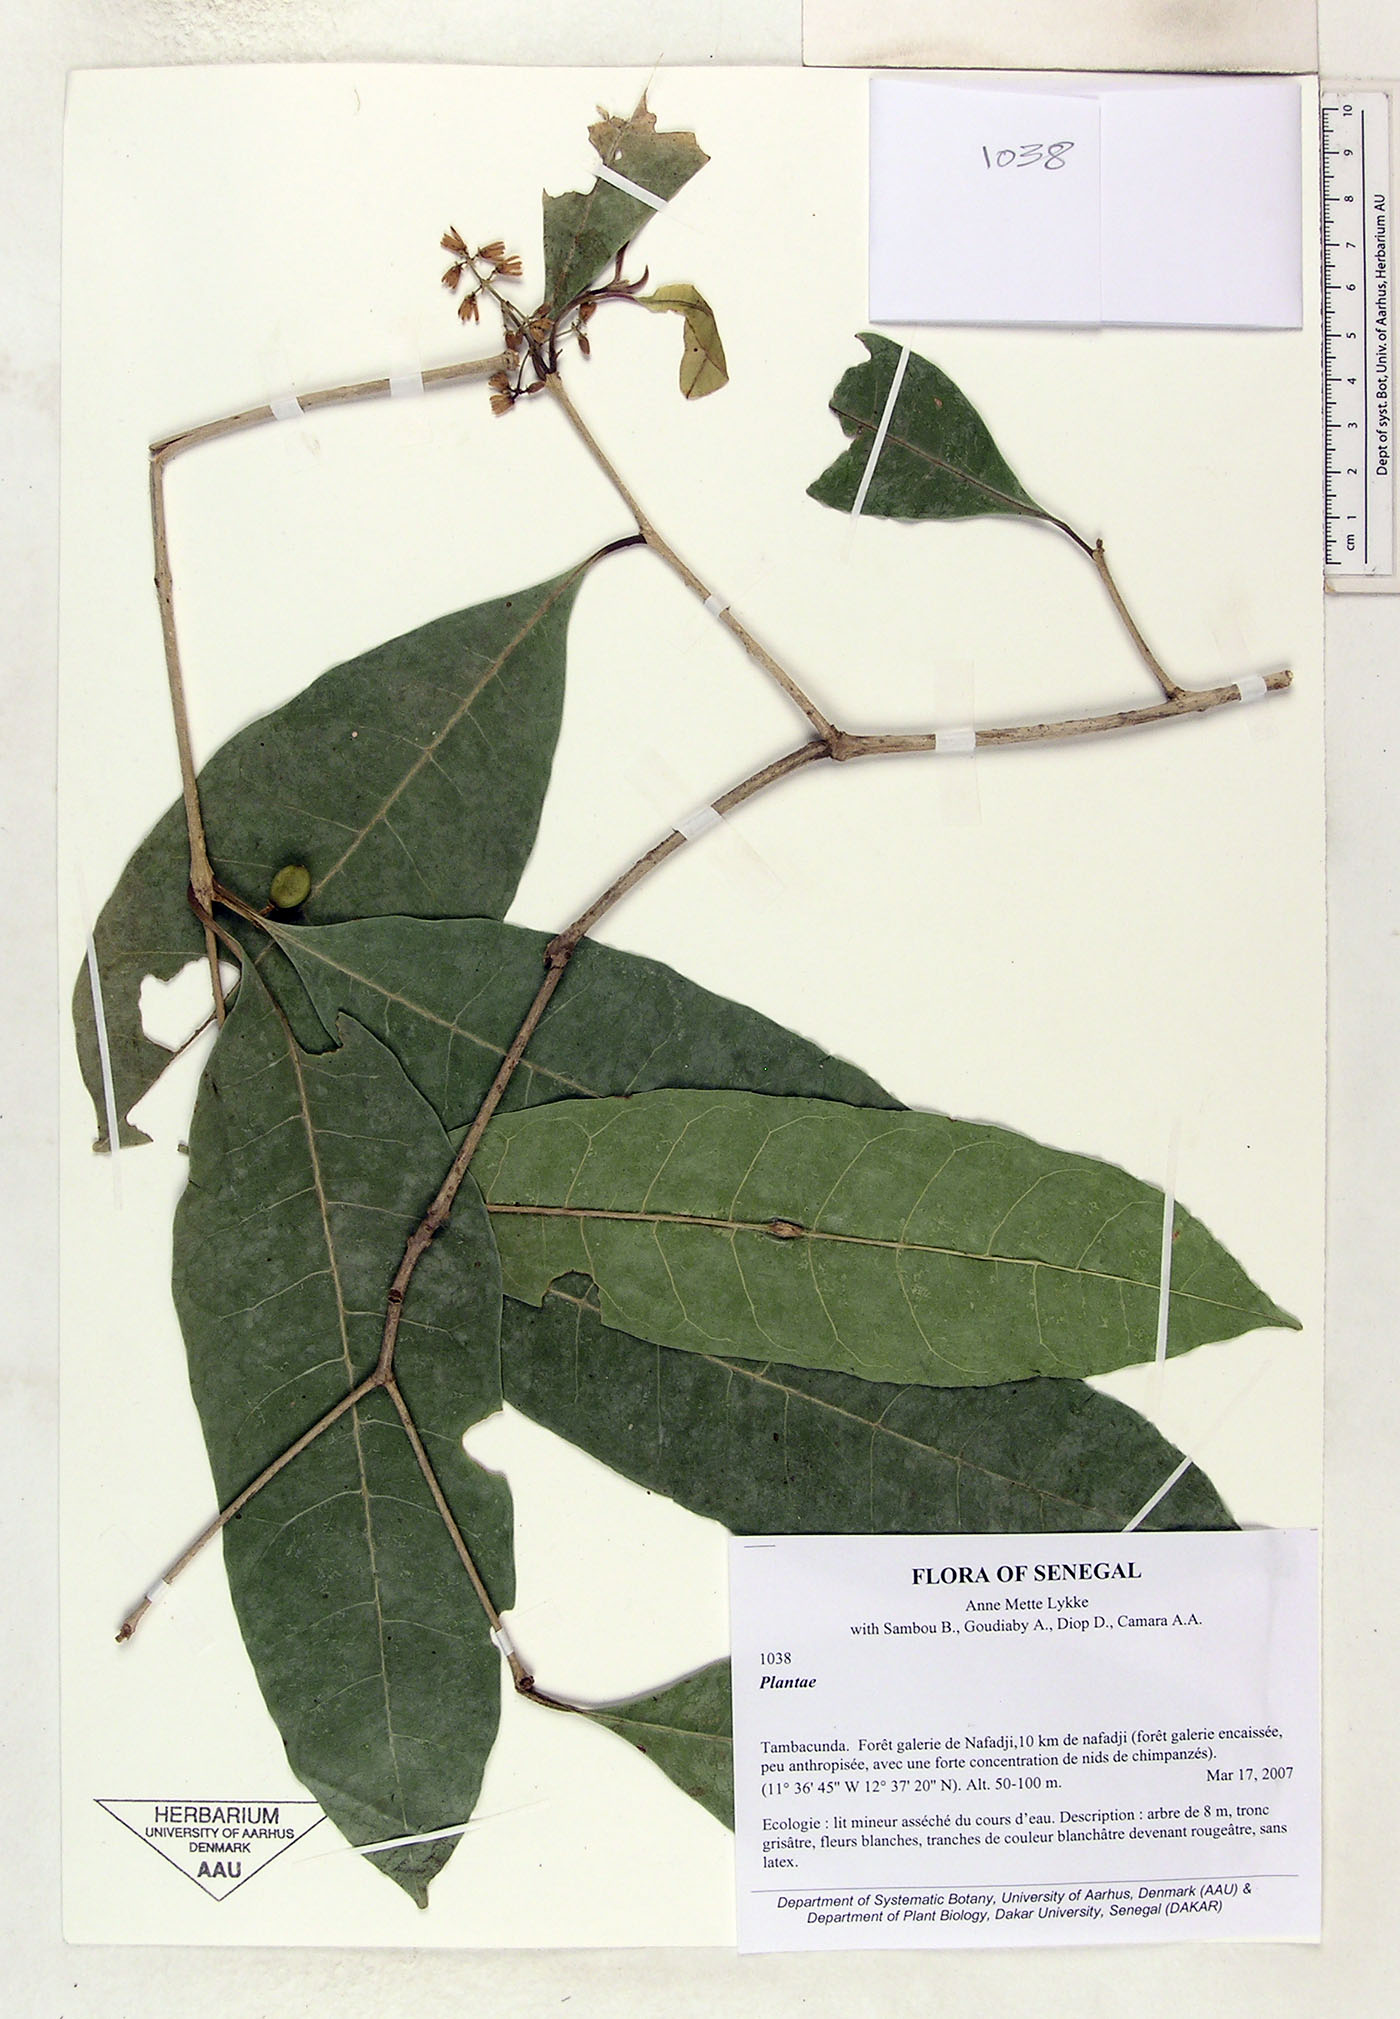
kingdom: Plantae
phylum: Tracheophyta
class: Magnoliopsida
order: Lamiales
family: Oleaceae
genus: Noronhia
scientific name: Noronhia nilotica
